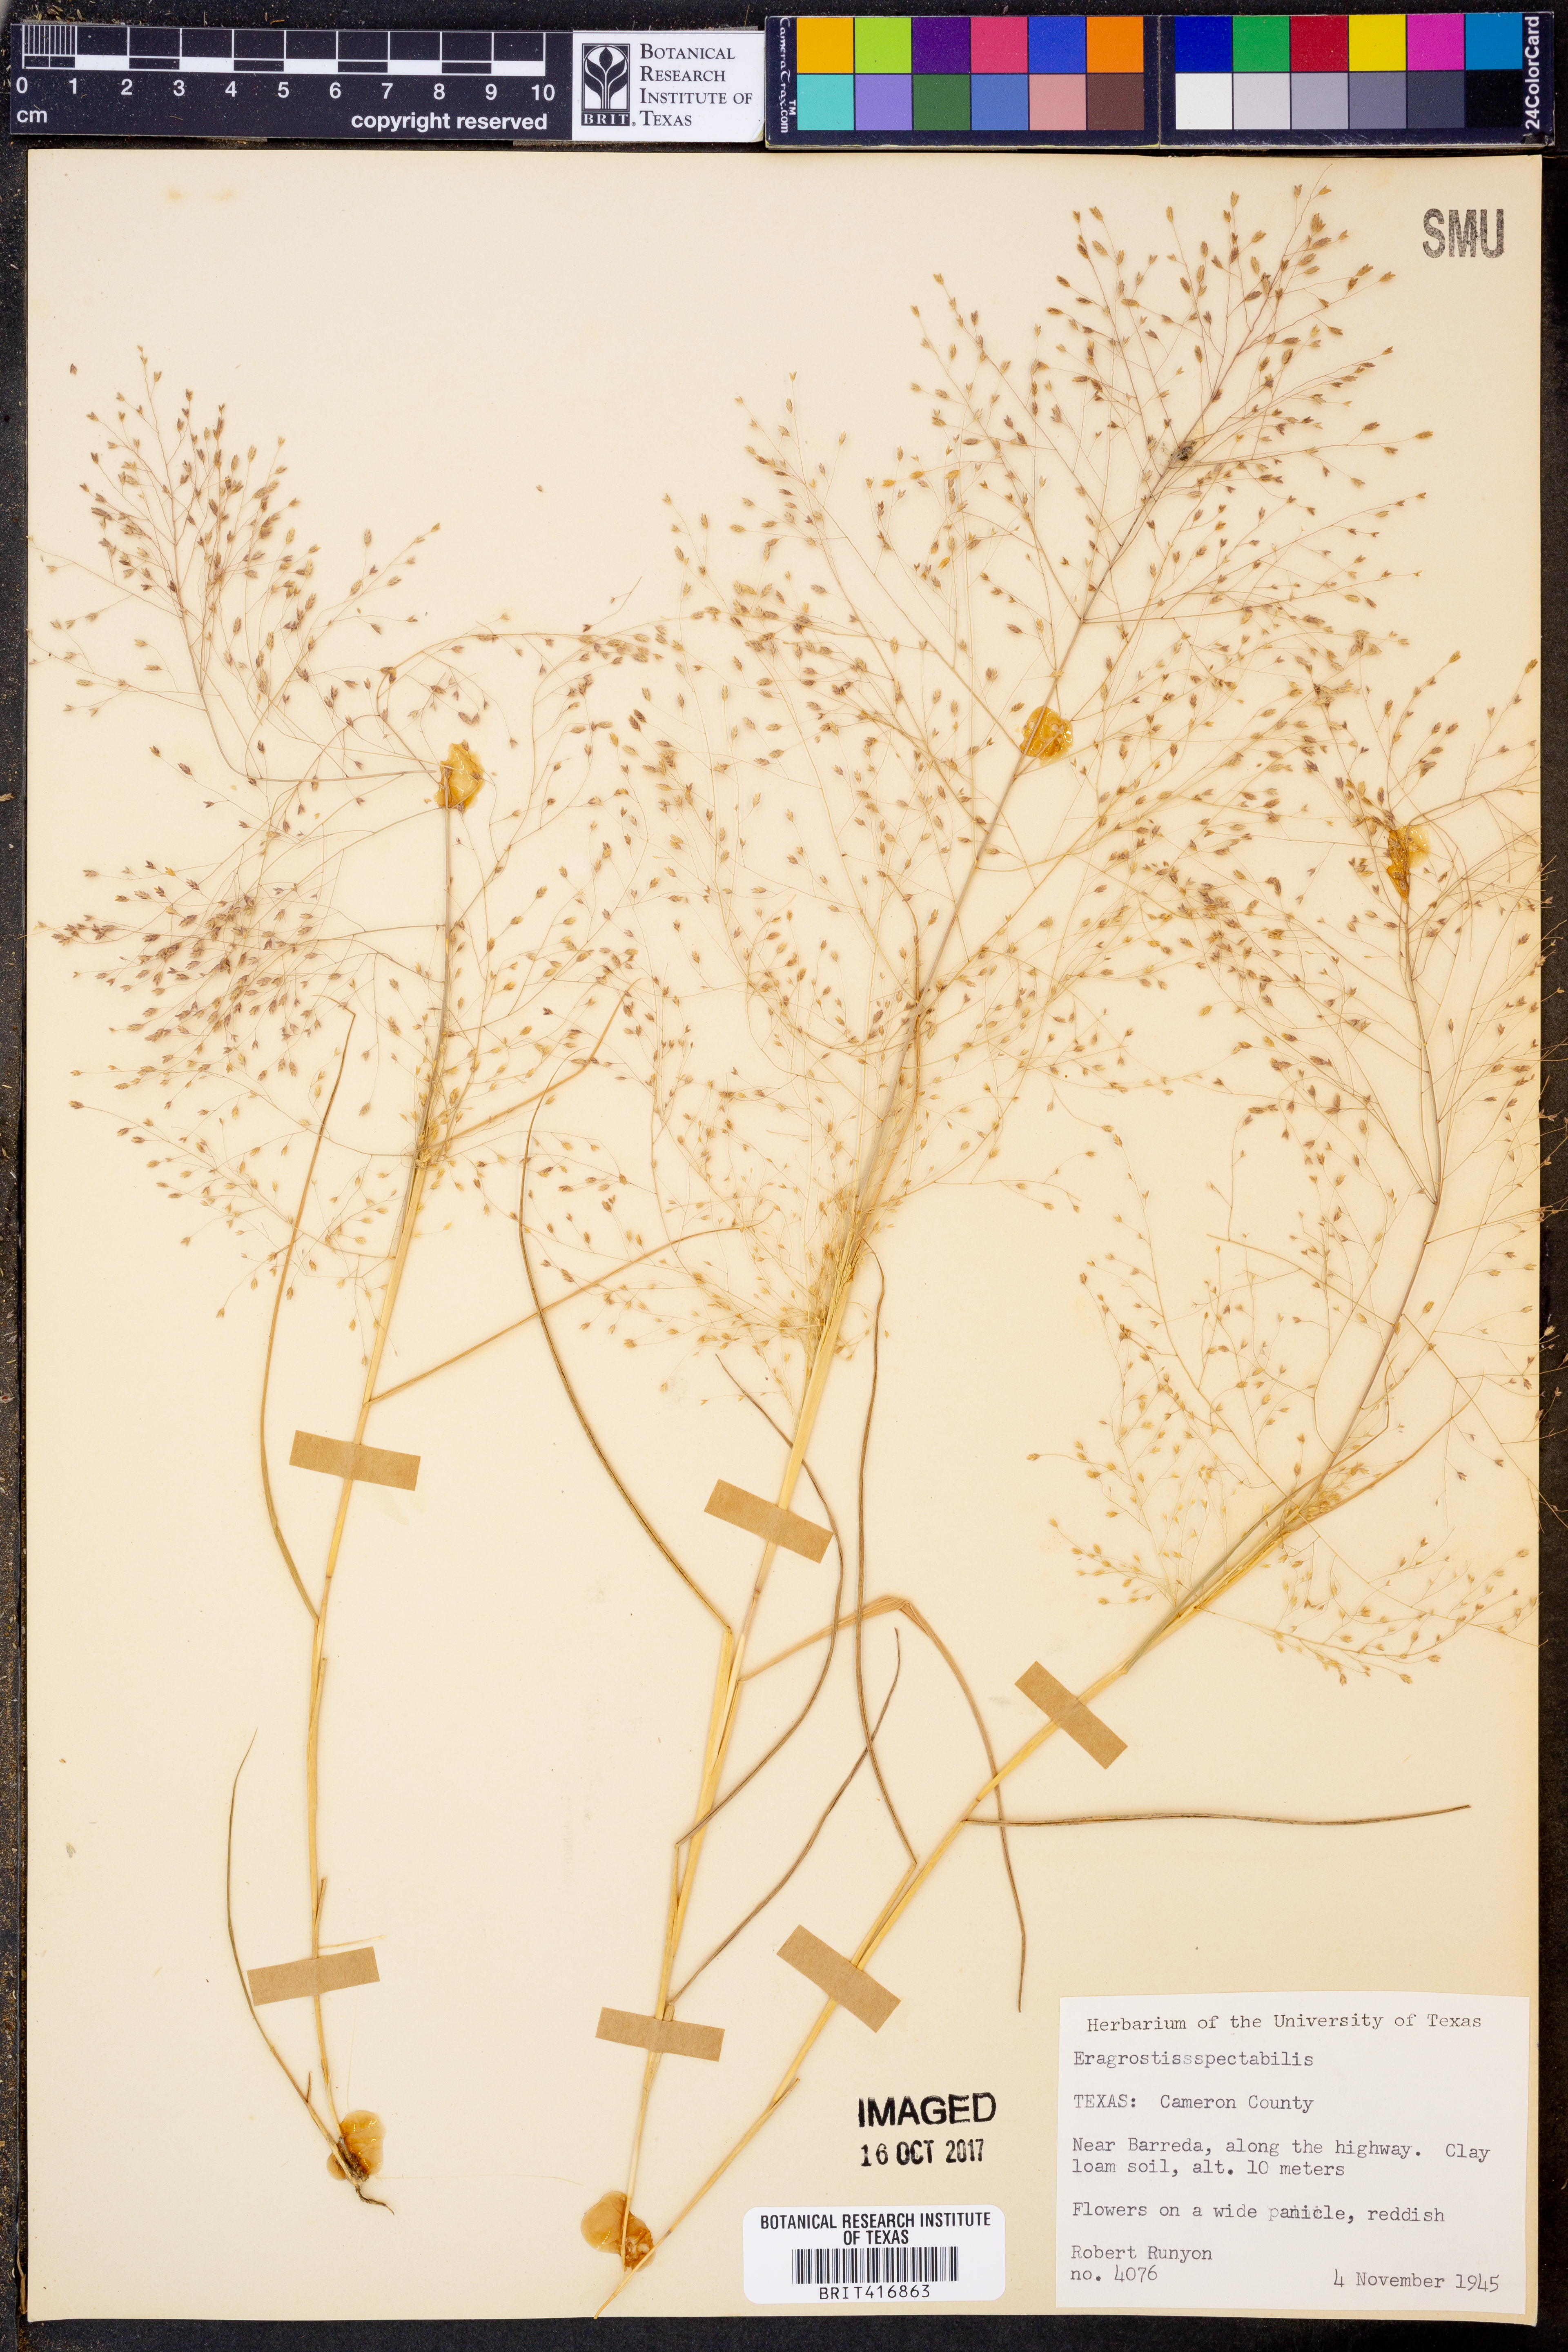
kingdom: Plantae
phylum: Tracheophyta
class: Liliopsida
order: Poales
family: Poaceae
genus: Eragrostis
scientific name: Eragrostis spectabilis
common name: Petticoat-climber
